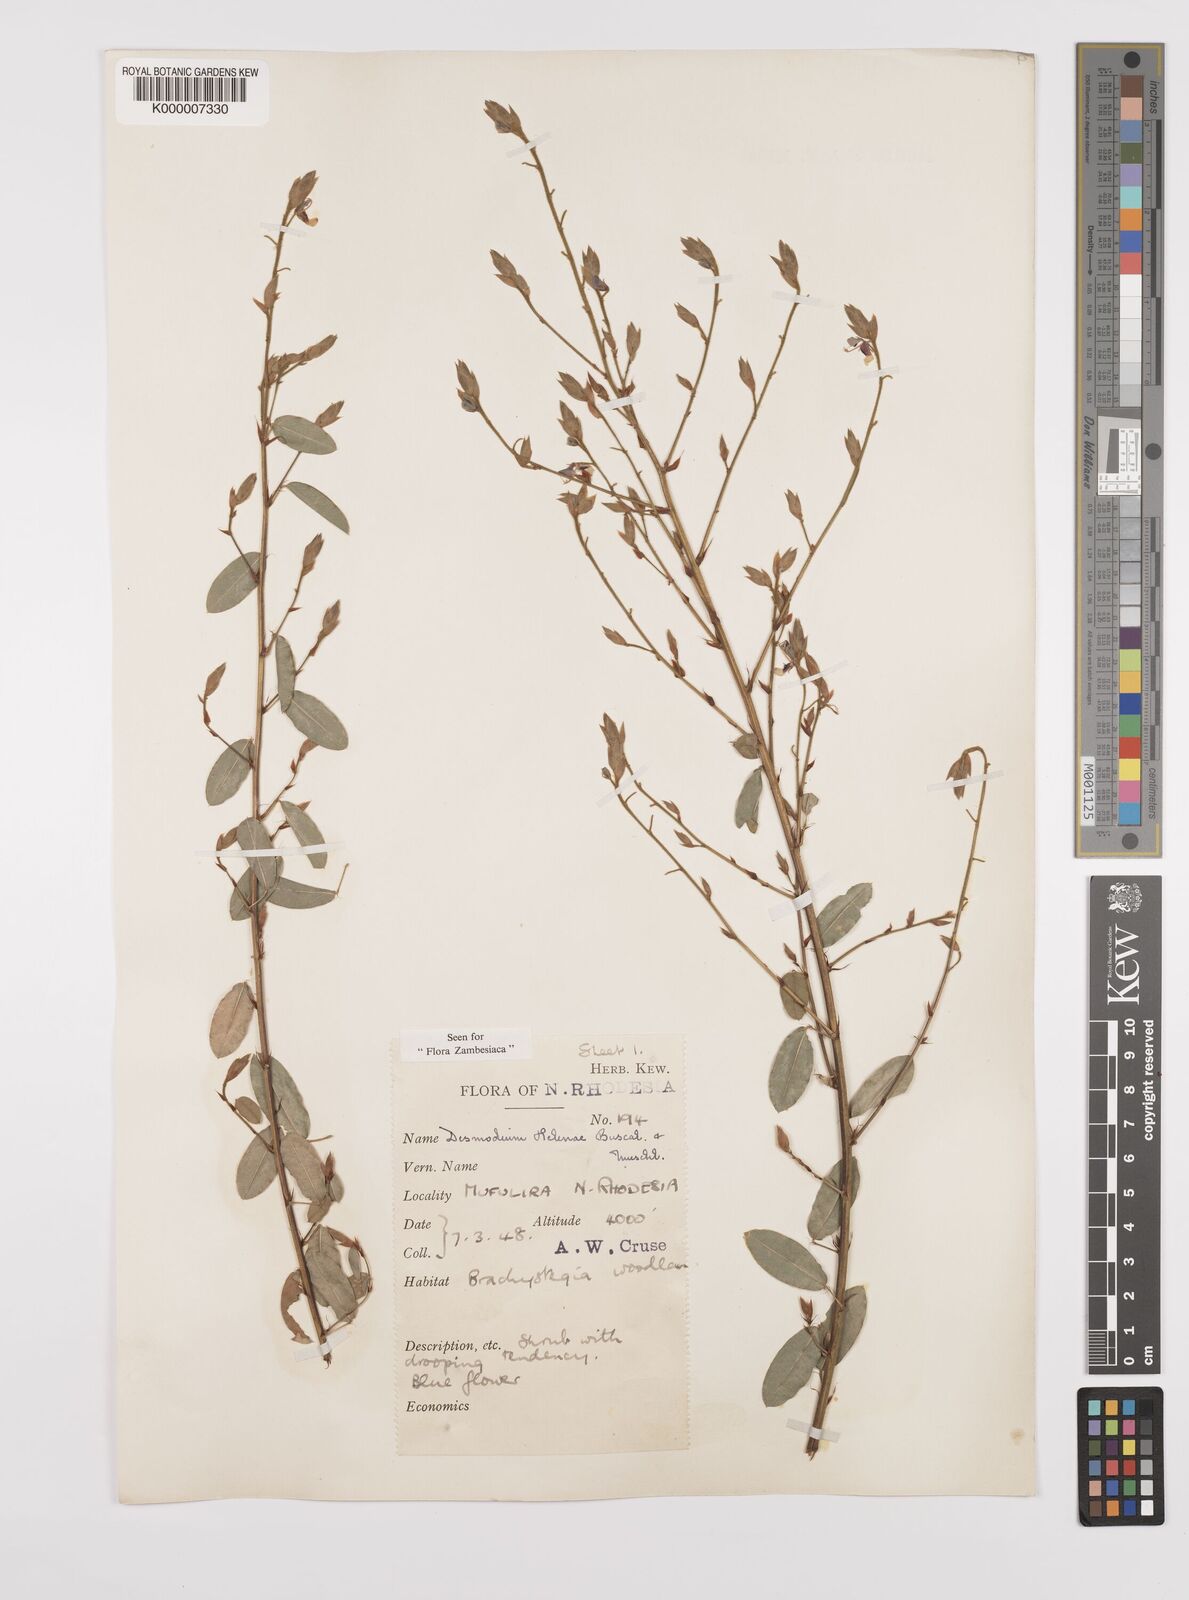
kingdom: Plantae
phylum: Tracheophyta
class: Magnoliopsida
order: Fabales
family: Fabaceae
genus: Grona
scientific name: Grona helenae
